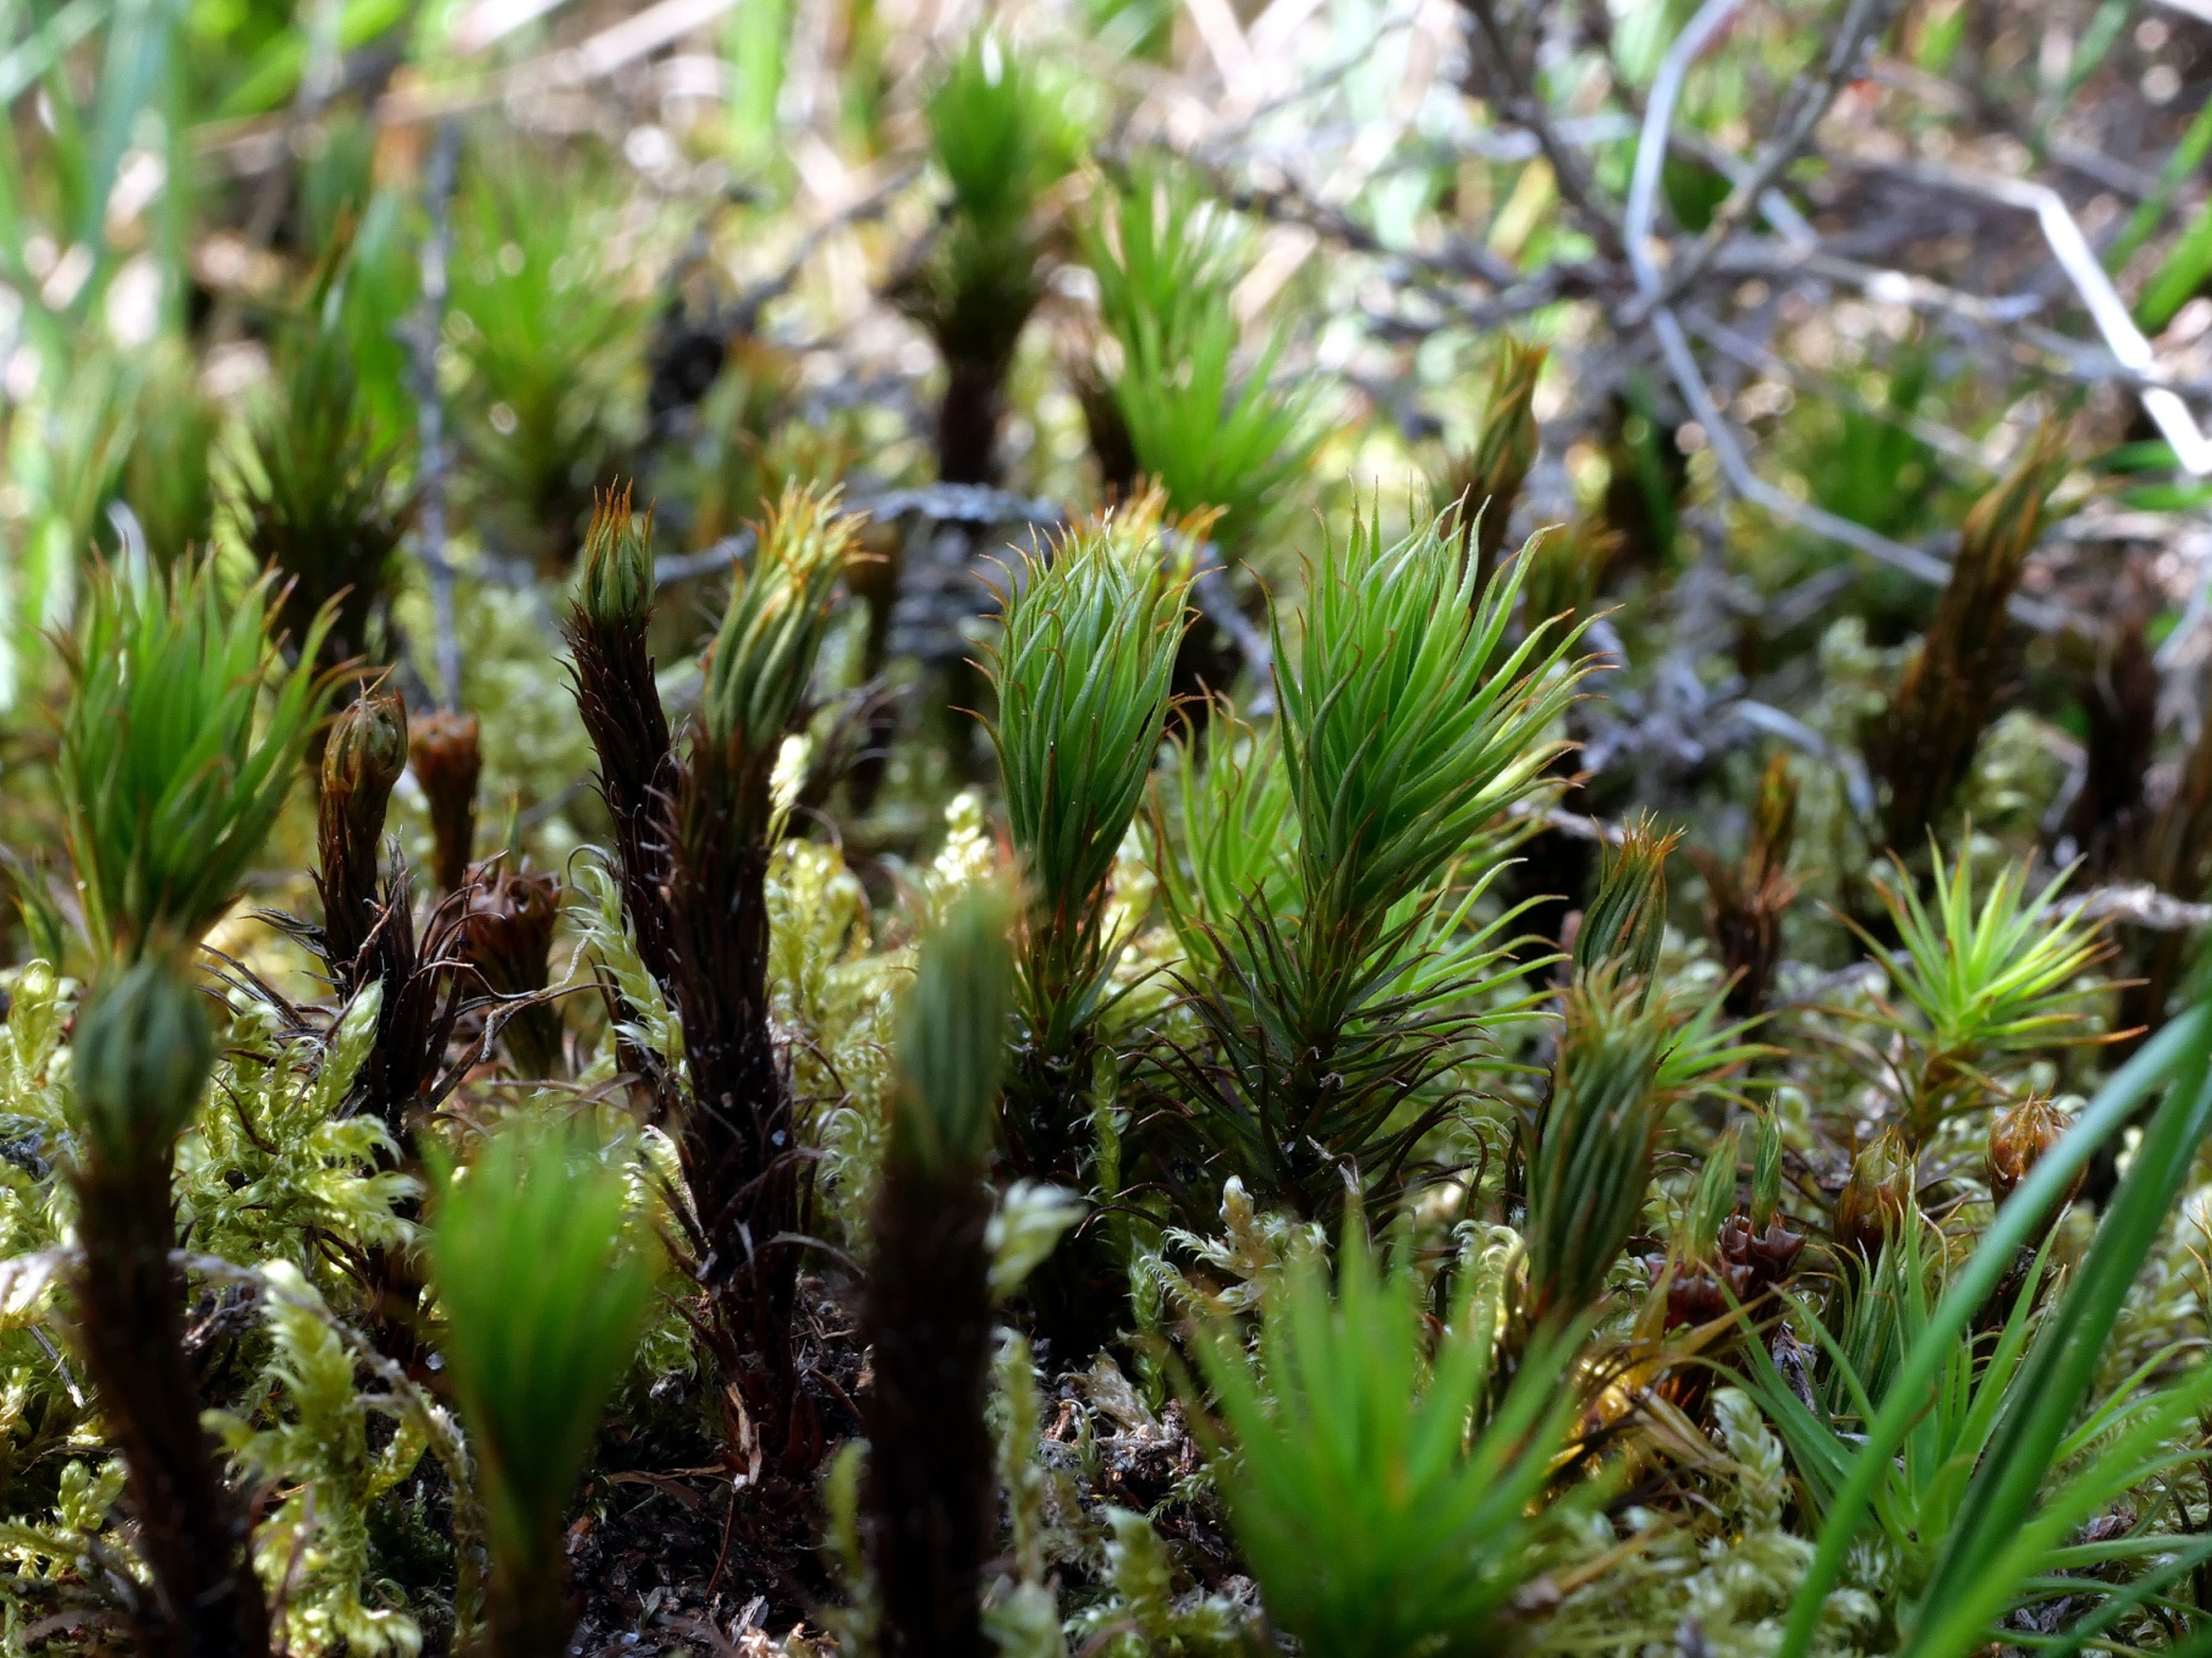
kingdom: Plantae
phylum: Bryophyta
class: Polytrichopsida
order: Polytrichales
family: Polytrichaceae
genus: Polytrichum
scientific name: Polytrichum commune
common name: Almindelig jomfruhår
